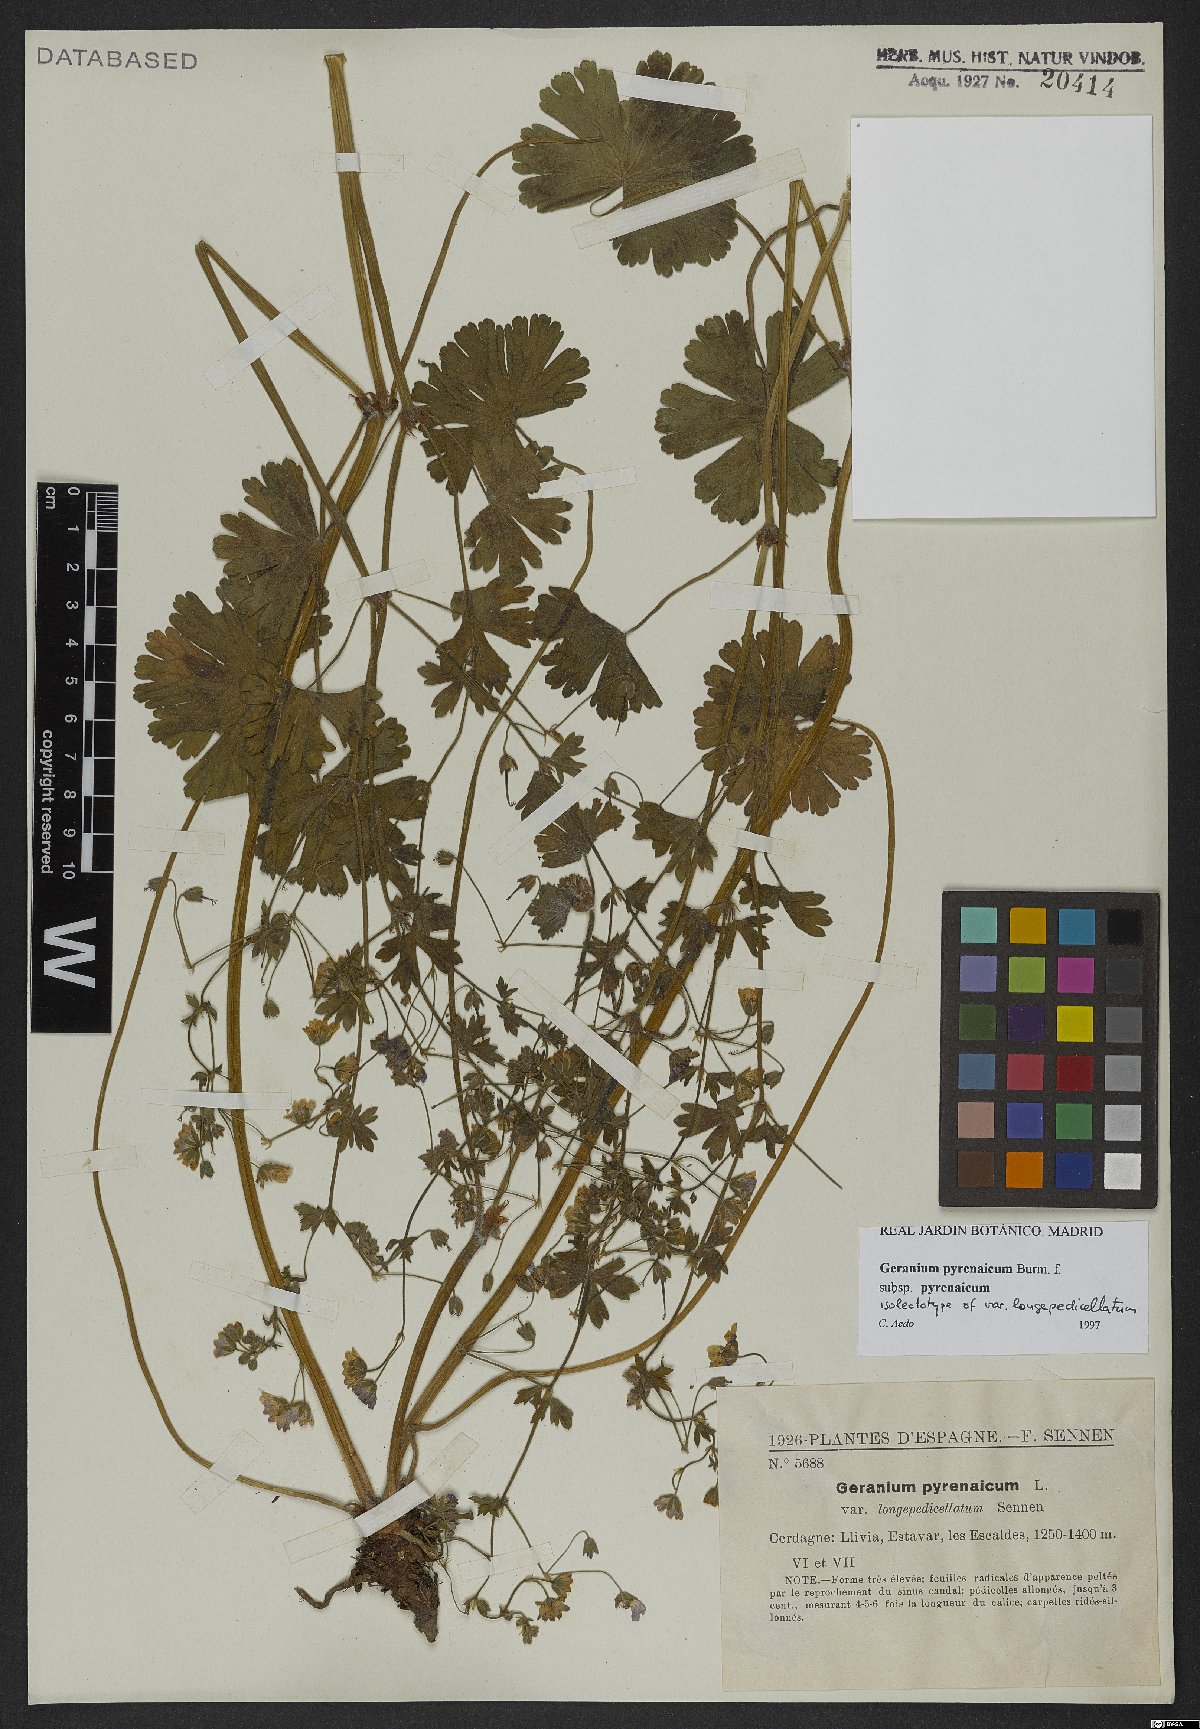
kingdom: Plantae
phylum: Tracheophyta
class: Magnoliopsida
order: Geraniales
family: Geraniaceae
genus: Geranium
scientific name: Geranium pyrenaicum
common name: Hedgerow crane's-bill
